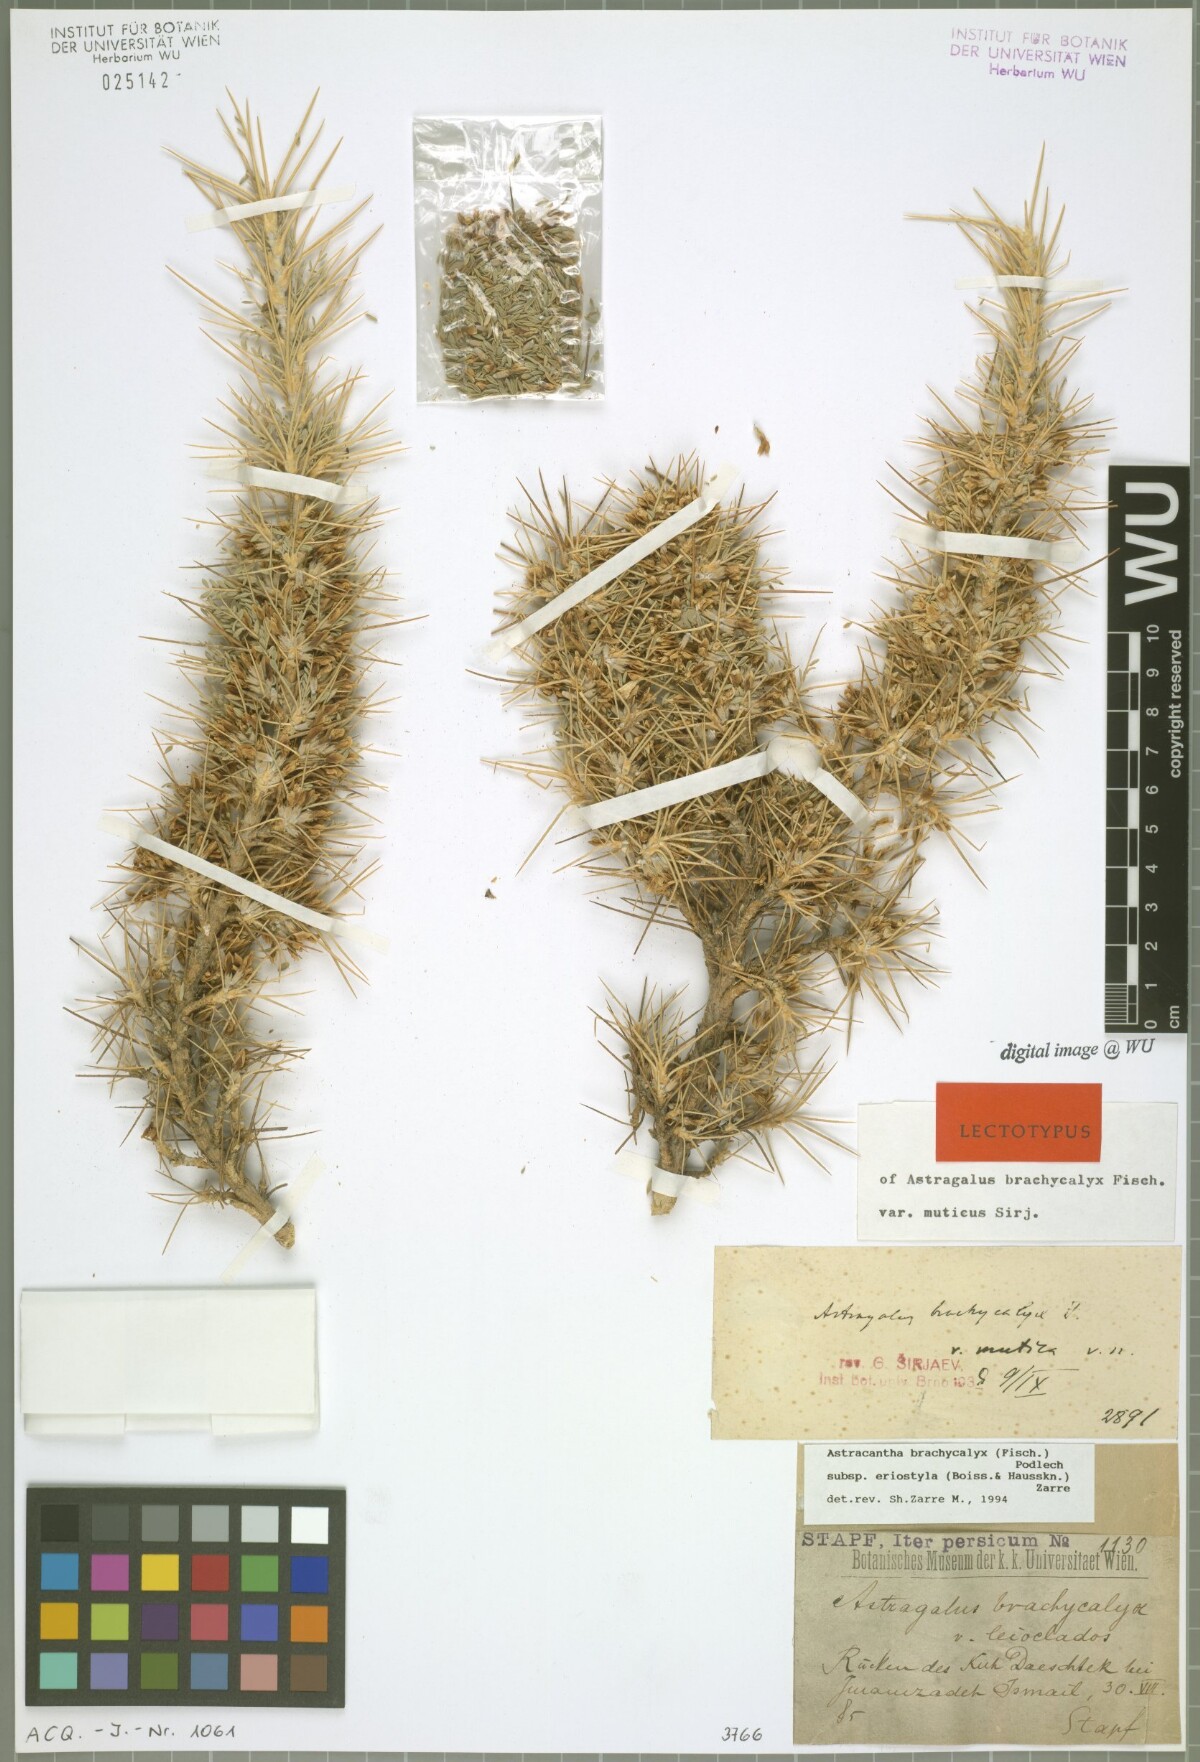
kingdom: Plantae
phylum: Tracheophyta
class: Magnoliopsida
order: Fabales
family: Fabaceae
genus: Astragalus
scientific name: Astragalus brachycalyx
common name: Persian manna
